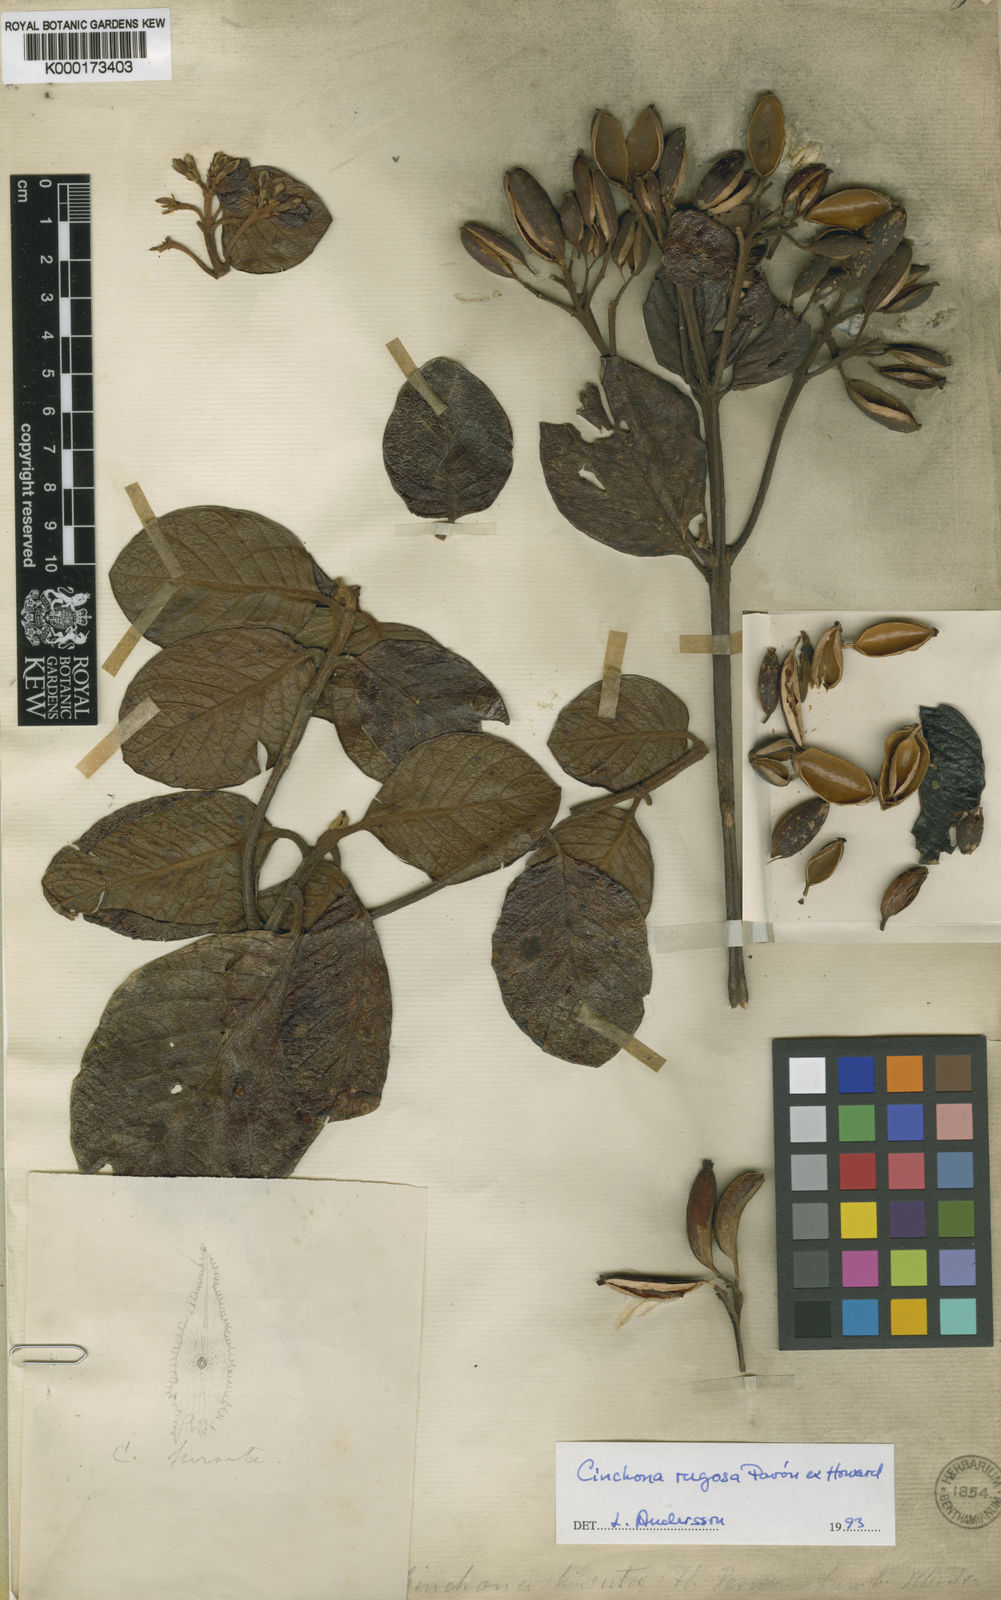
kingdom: Plantae
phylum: Tracheophyta
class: Magnoliopsida
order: Gentianales
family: Rubiaceae
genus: Cinchona
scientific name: Cinchona
